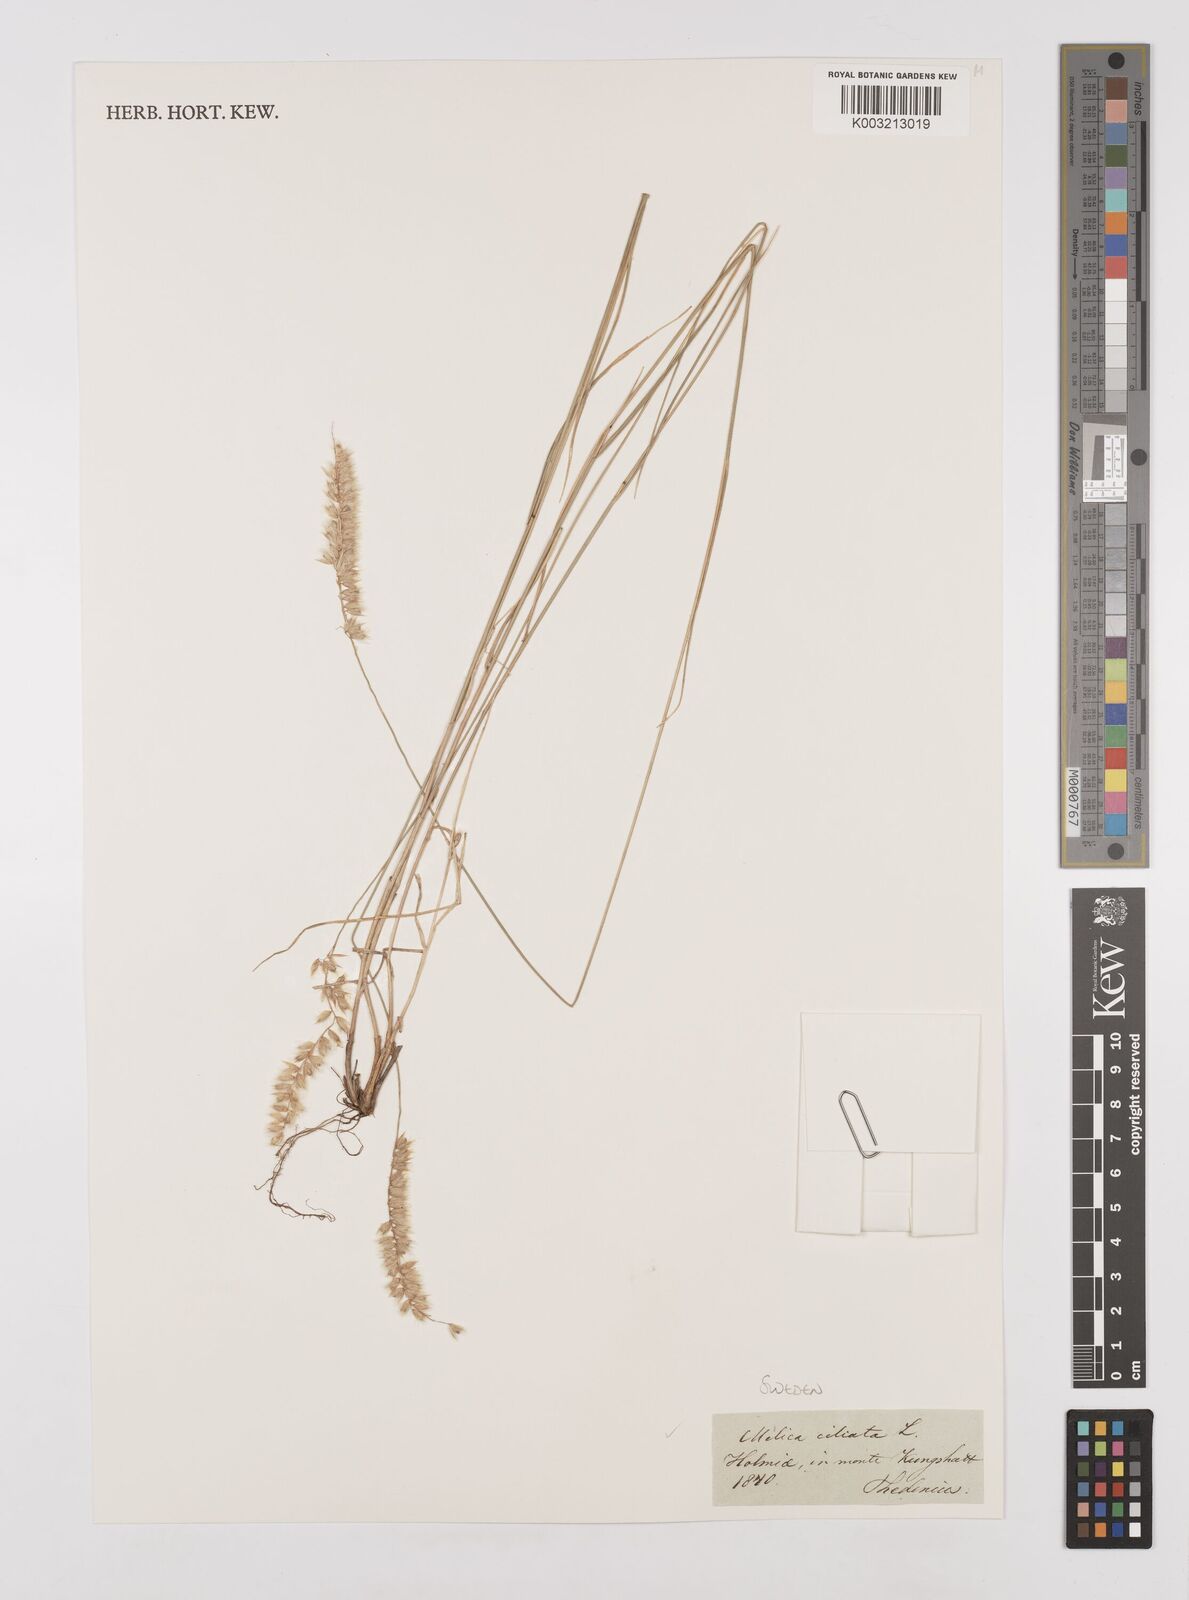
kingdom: Plantae
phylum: Tracheophyta
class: Liliopsida
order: Poales
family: Poaceae
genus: Melica
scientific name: Melica ciliata
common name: Hairy melicgrass
